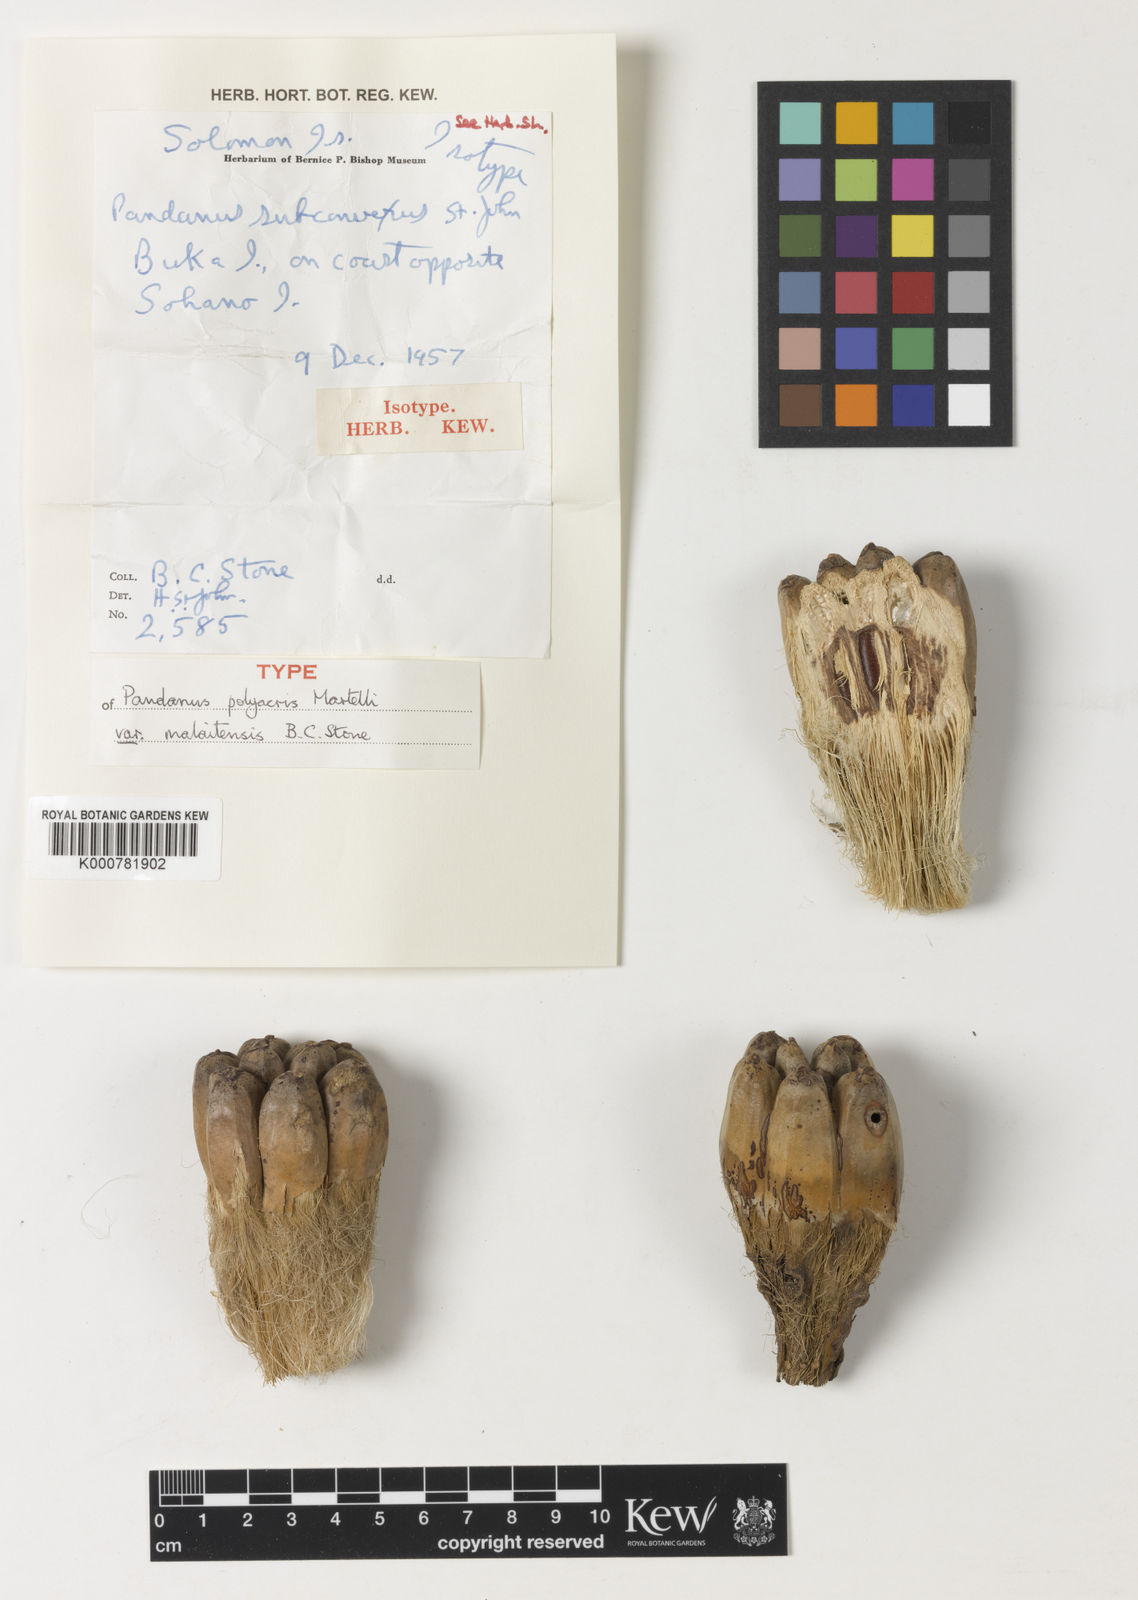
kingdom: Plantae
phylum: Tracheophyta
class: Liliopsida
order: Pandanales
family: Pandanaceae
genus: Pandanus
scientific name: Pandanus polyacris
